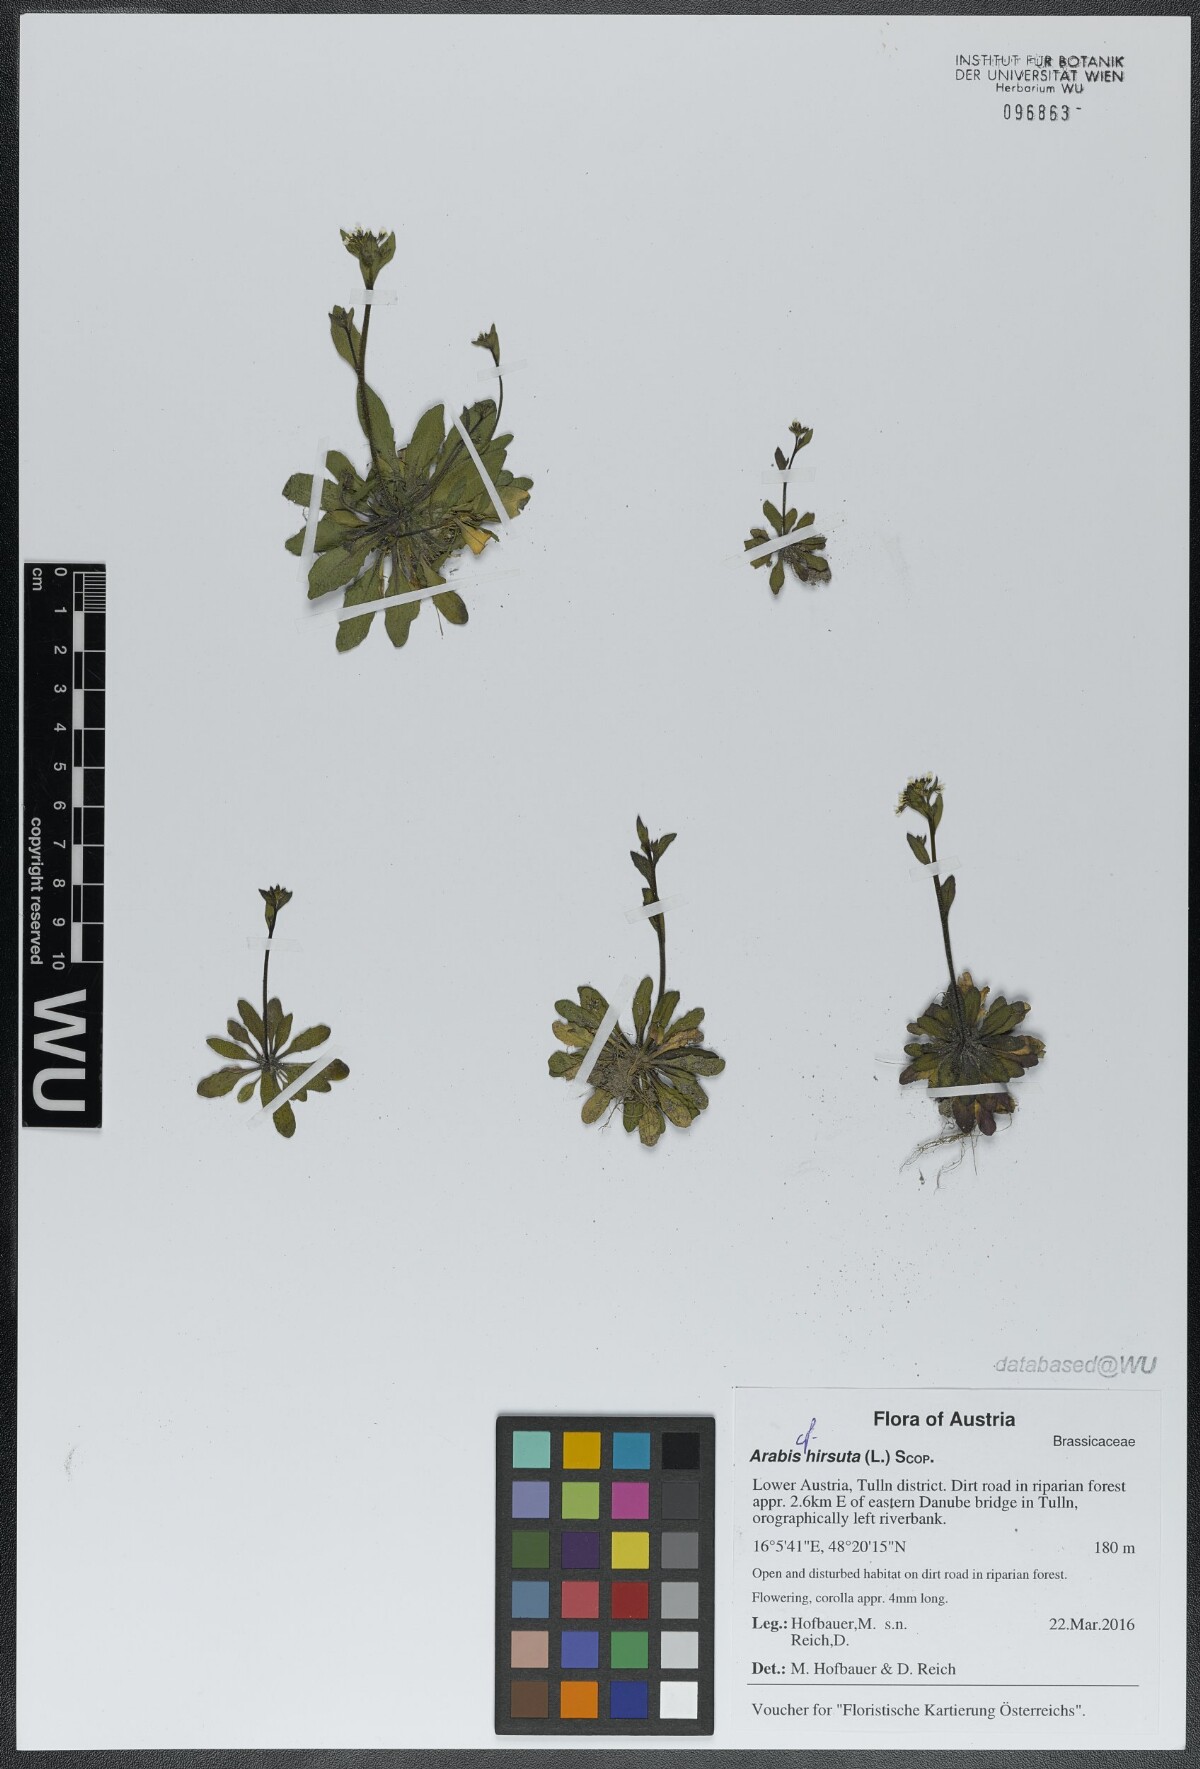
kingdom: Plantae
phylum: Tracheophyta
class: Magnoliopsida
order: Brassicales
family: Brassicaceae
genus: Arabis
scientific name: Arabis hirsuta
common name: Hairy rock-cress
